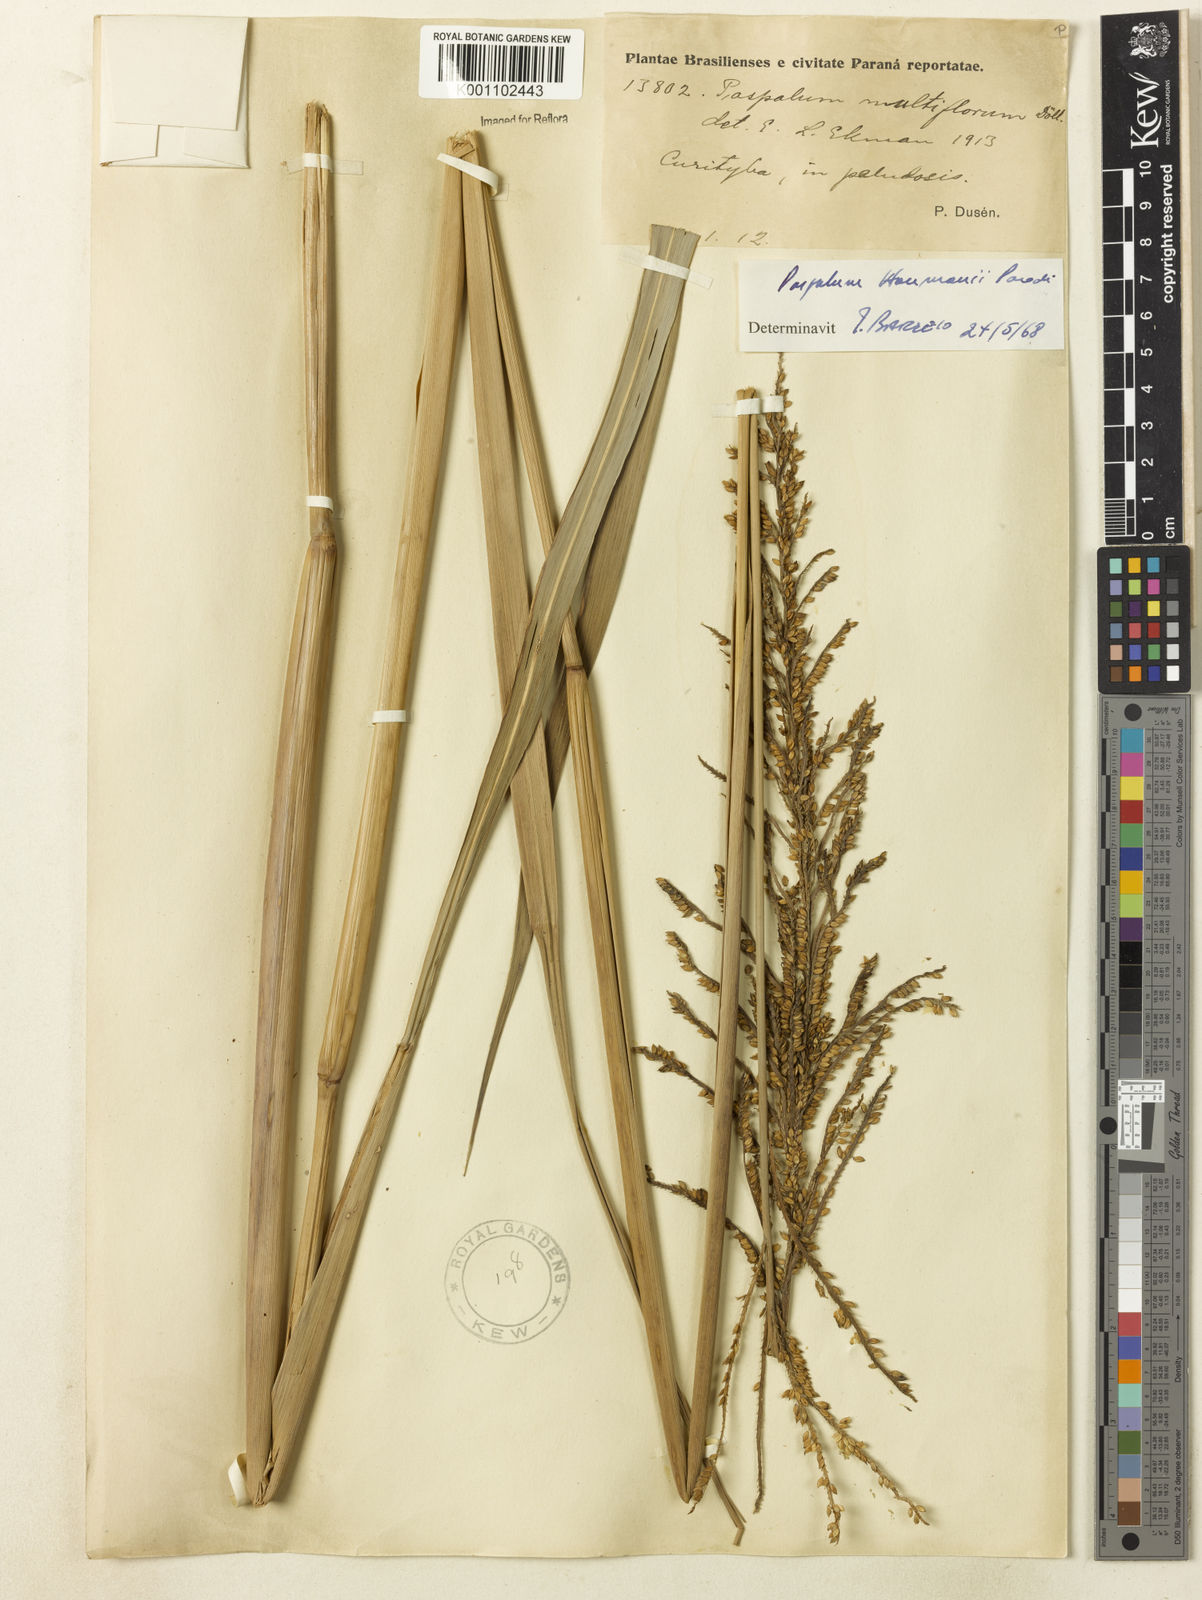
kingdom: Plantae
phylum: Tracheophyta
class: Liliopsida
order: Poales
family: Poaceae
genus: Paspalum
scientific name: Paspalum exaltatum
